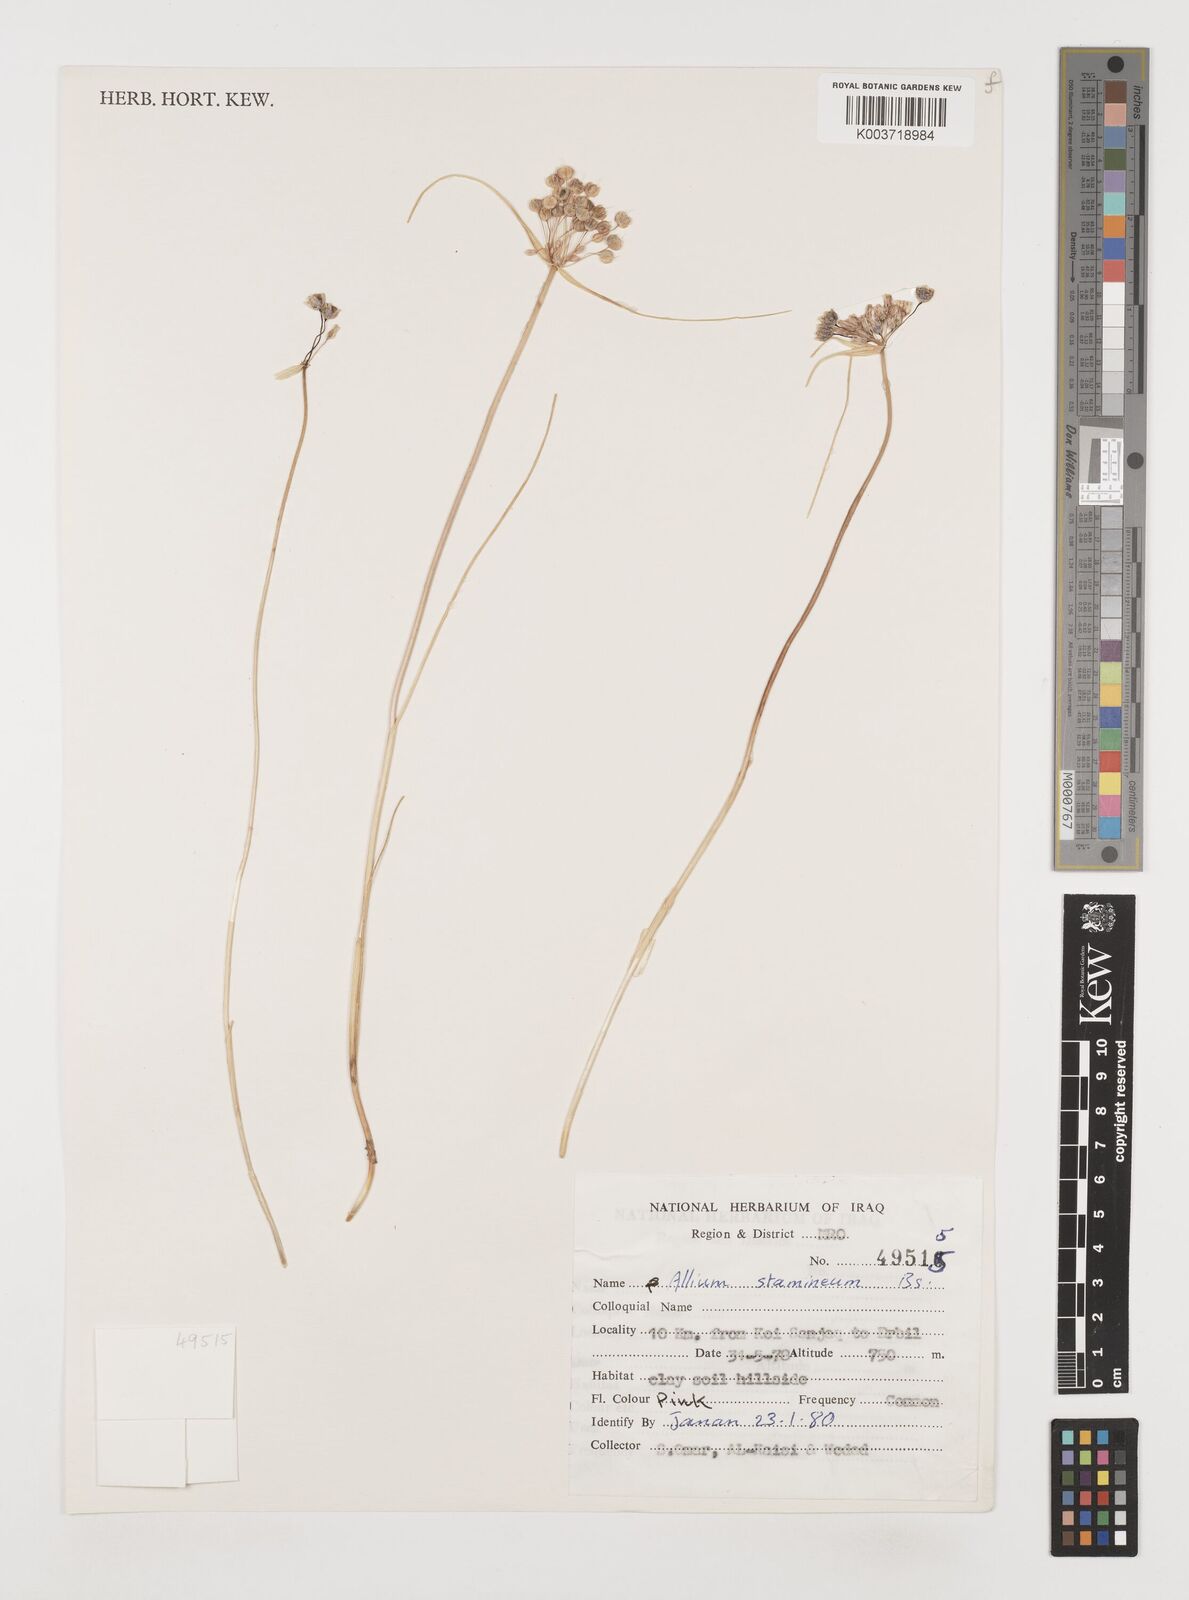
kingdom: Plantae
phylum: Tracheophyta
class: Liliopsida
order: Asparagales
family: Amaryllidaceae
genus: Allium
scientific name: Allium stamineum
